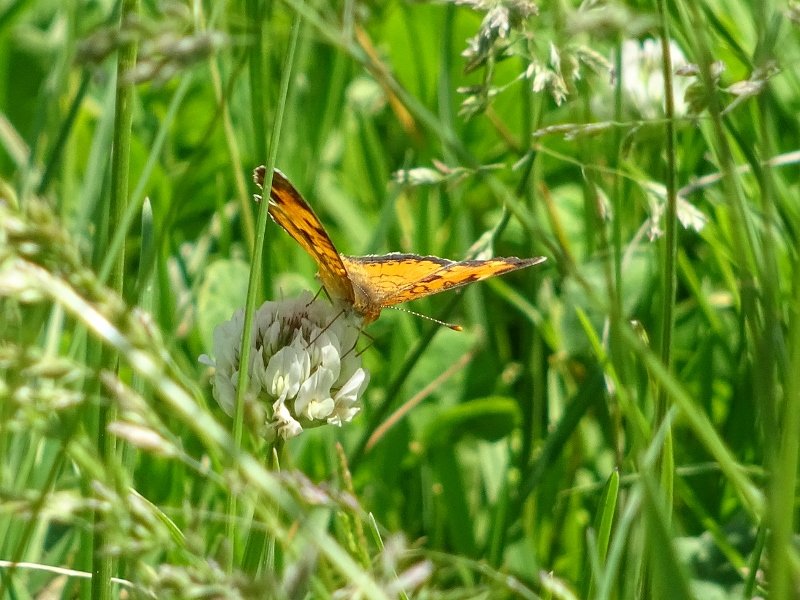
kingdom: Animalia
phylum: Arthropoda
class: Insecta
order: Lepidoptera
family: Nymphalidae
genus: Phyciodes
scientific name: Phyciodes tharos
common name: Northern Crescent
